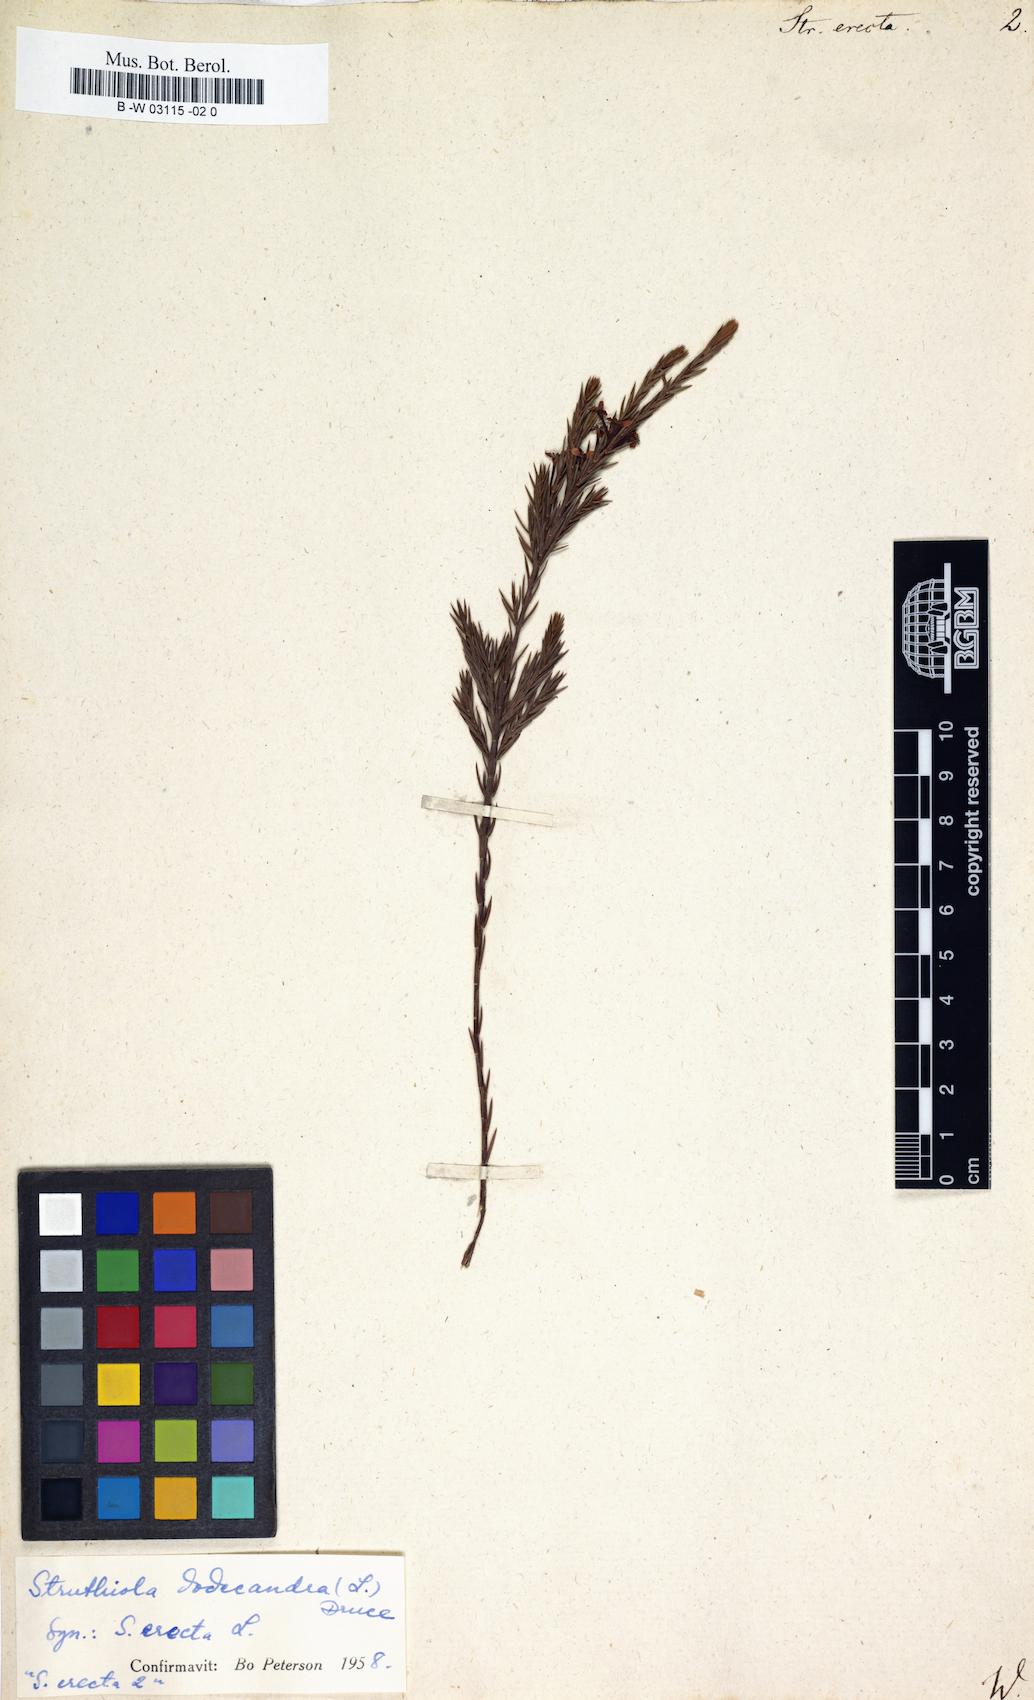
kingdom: Plantae
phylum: Tracheophyta
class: Magnoliopsida
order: Malvales
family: Thymelaeaceae
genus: Struthiola
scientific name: Struthiola
